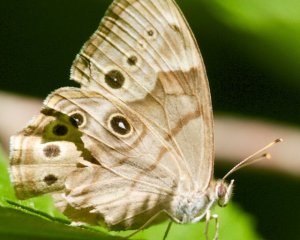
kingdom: Animalia
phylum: Arthropoda
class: Insecta
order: Lepidoptera
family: Nymphalidae
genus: Lethe
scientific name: Lethe anthedon
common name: Northern Pearly-Eye
